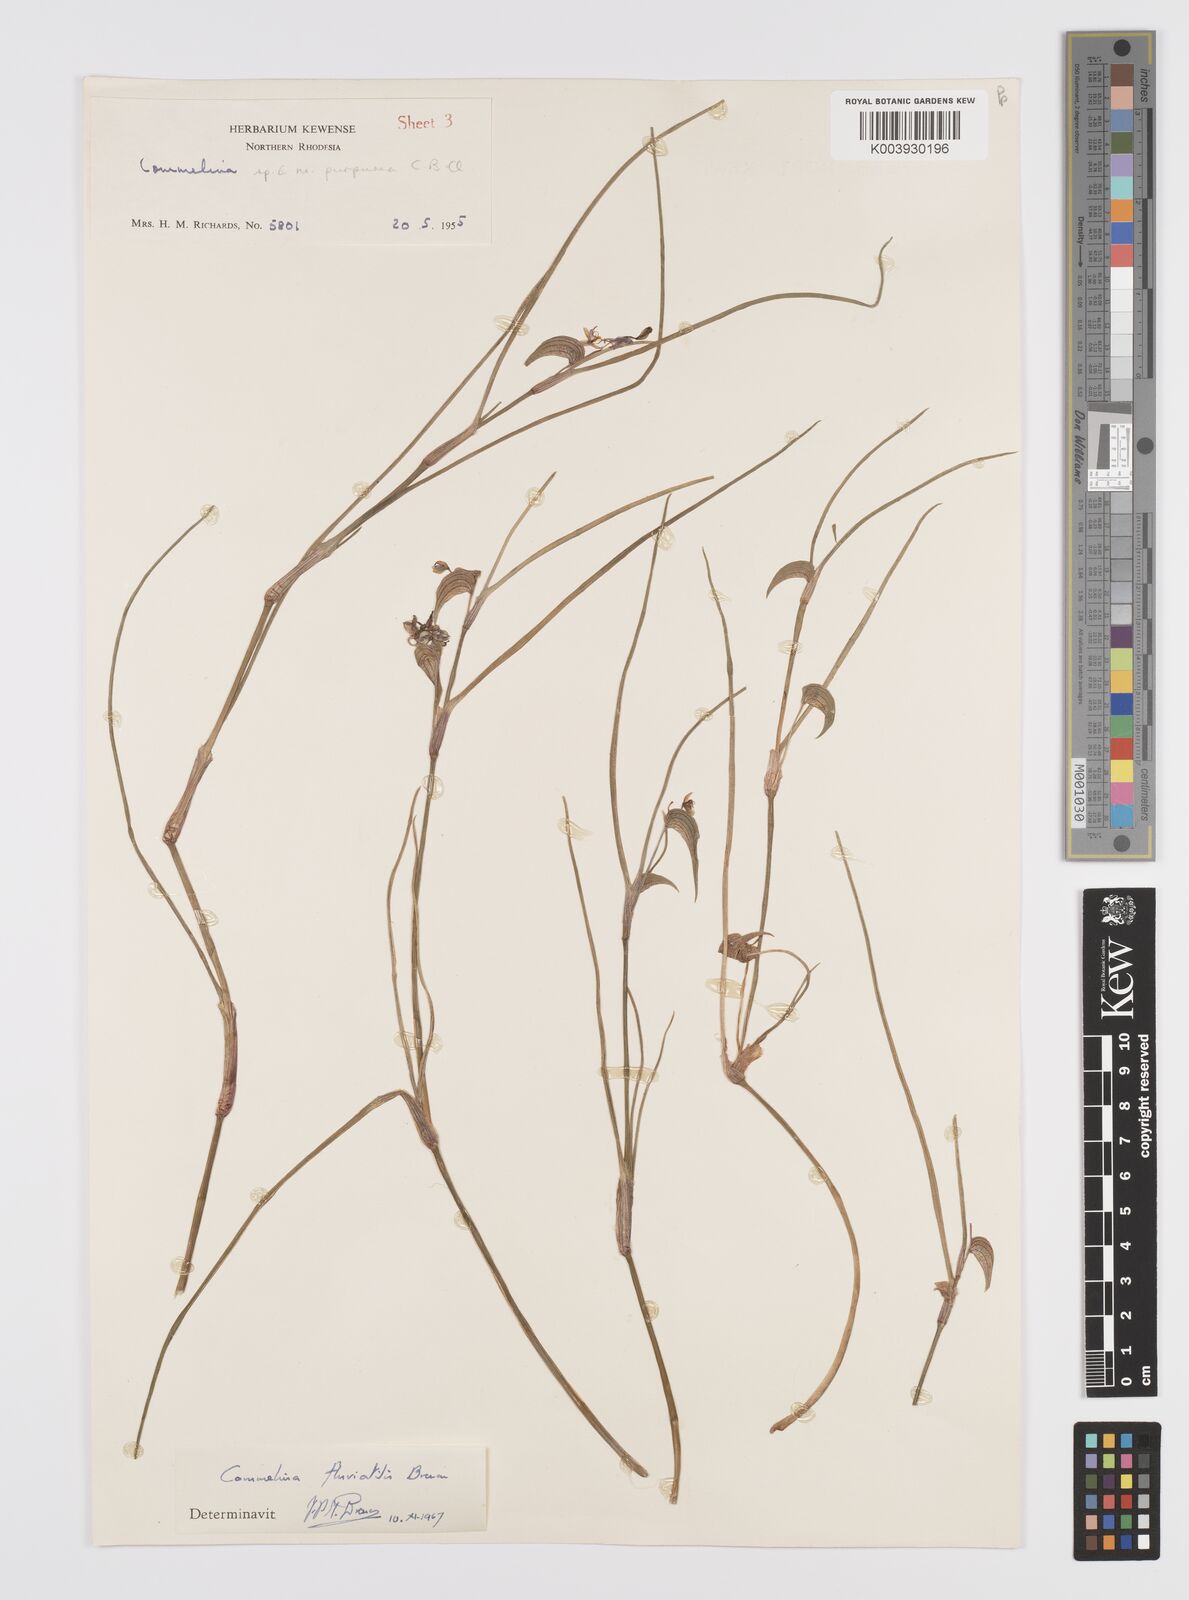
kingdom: Plantae
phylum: Tracheophyta
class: Liliopsida
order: Commelinales
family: Commelinaceae
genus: Commelina
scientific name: Commelina fluviatilis
